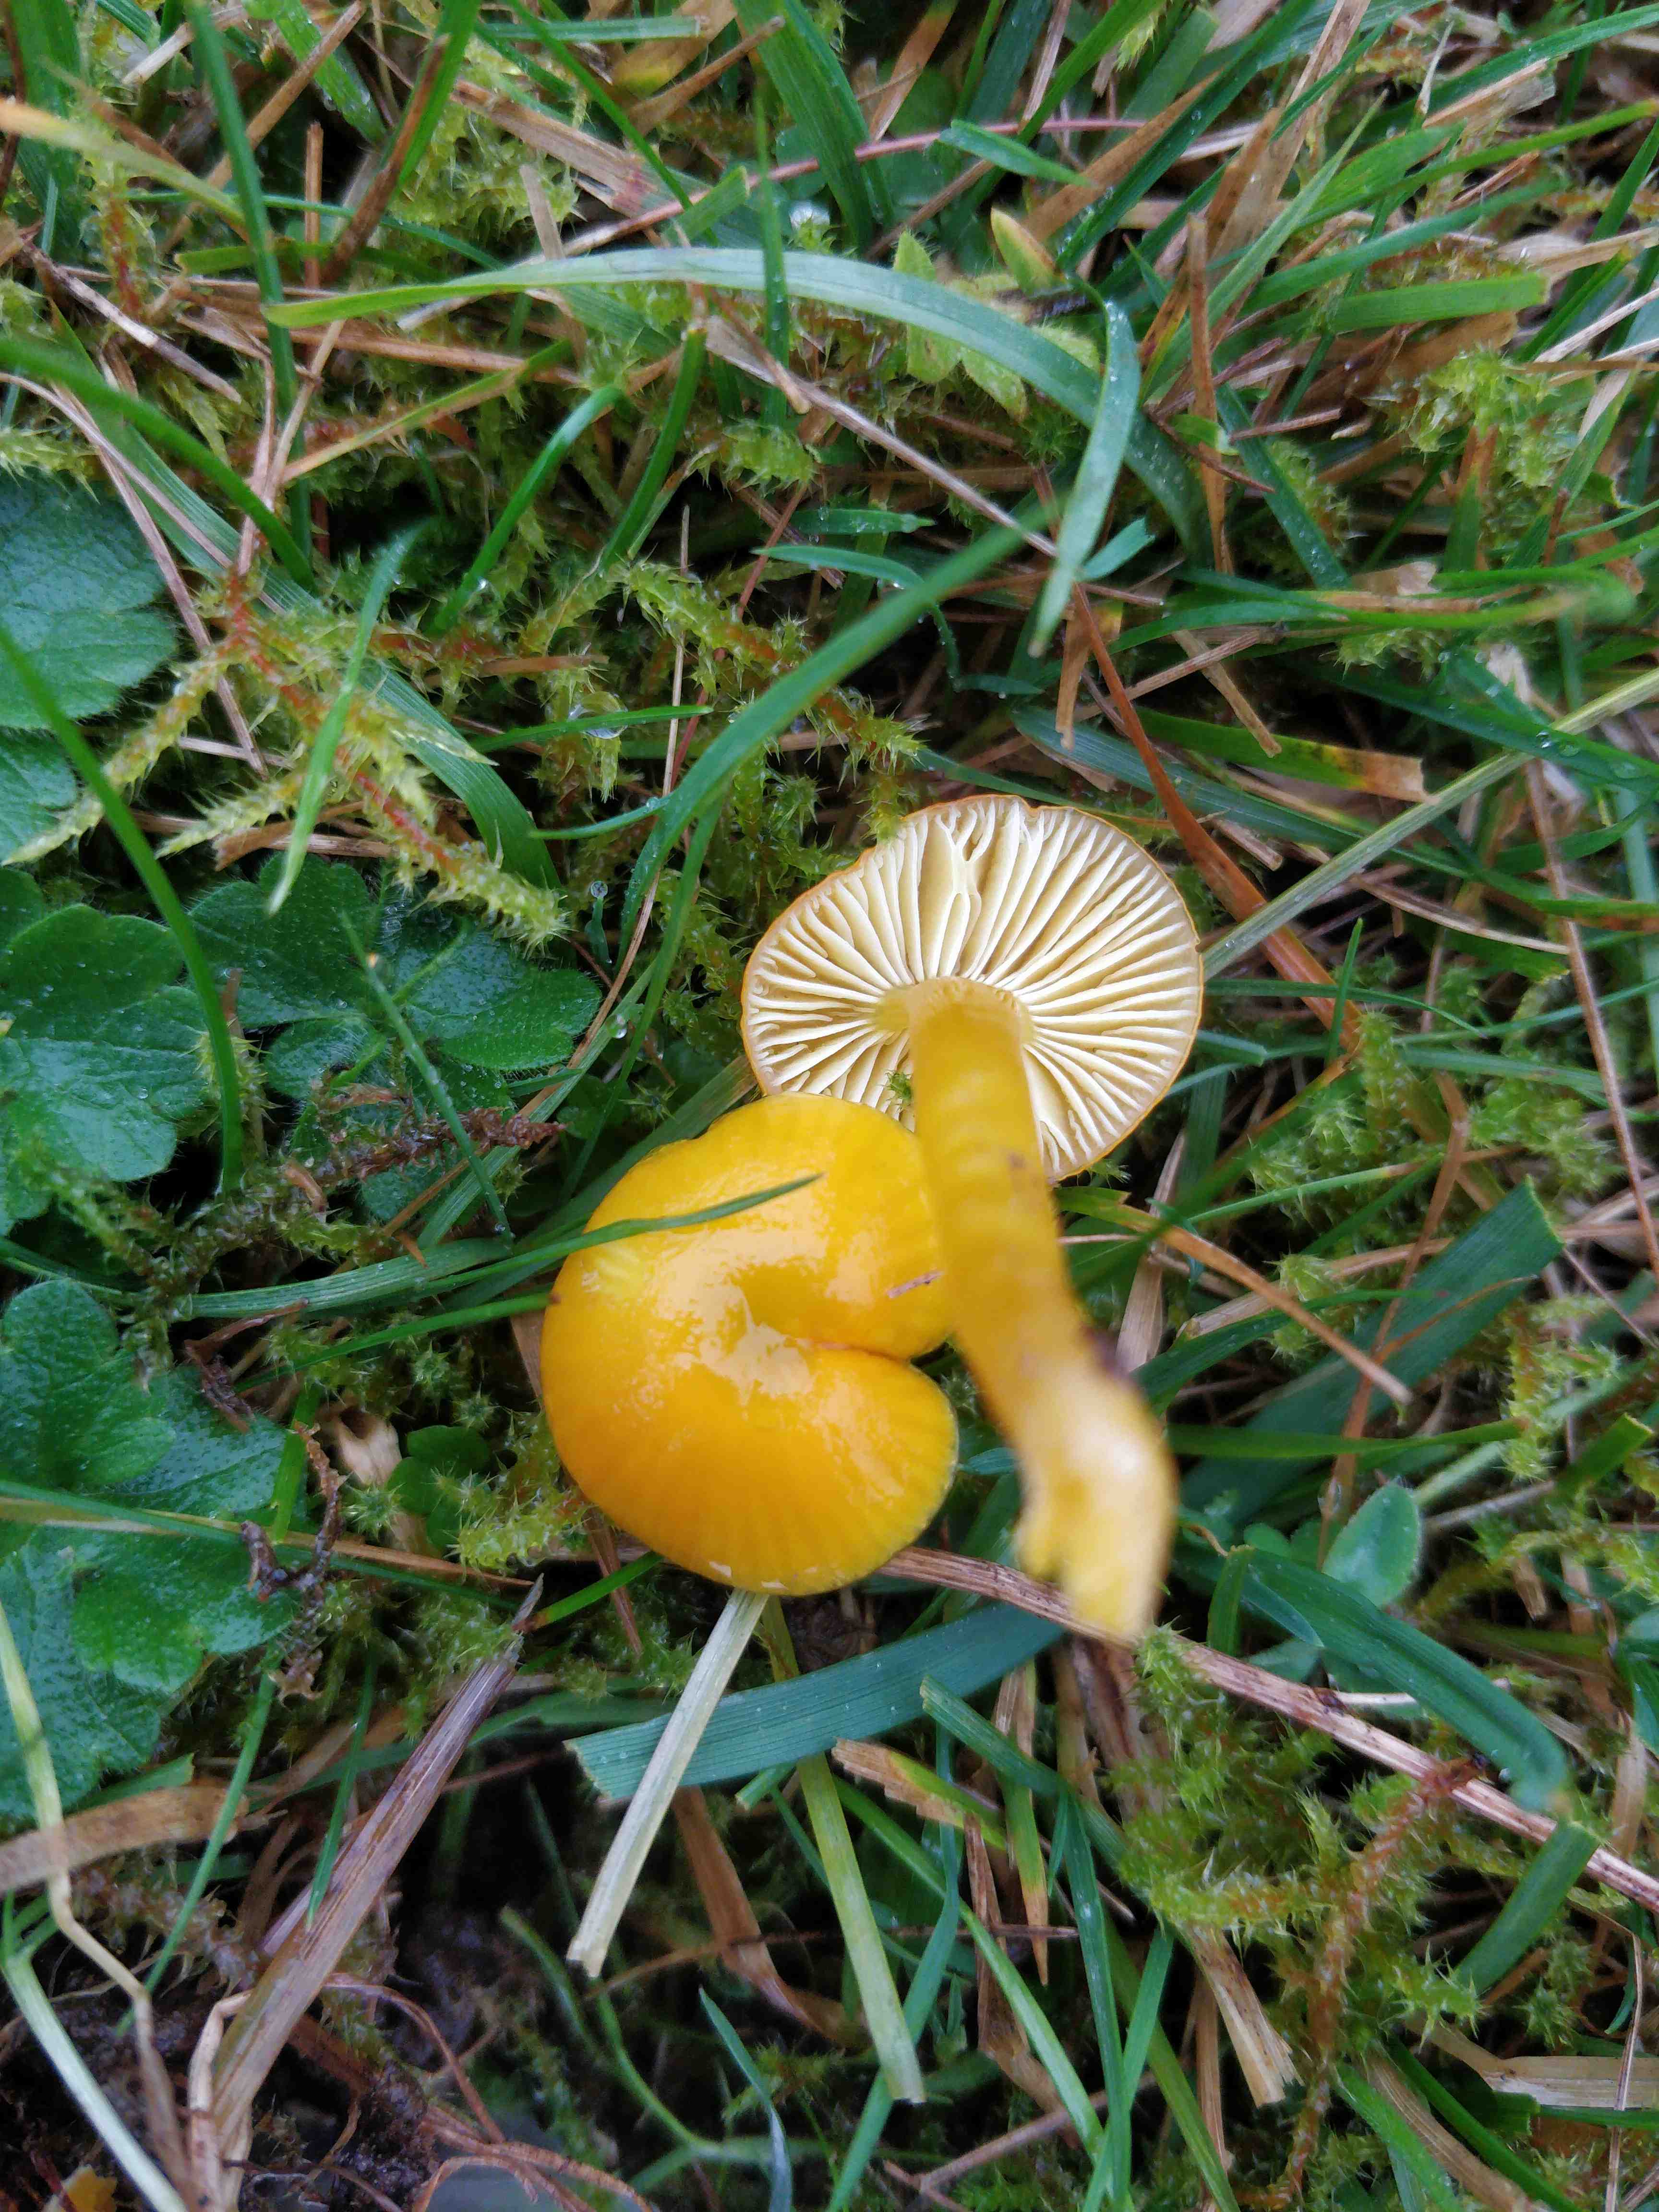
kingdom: Fungi
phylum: Basidiomycota
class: Agaricomycetes
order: Agaricales
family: Hygrophoraceae
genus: Hygrocybe
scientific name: Hygrocybe ceracea
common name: voksgul vokshat
